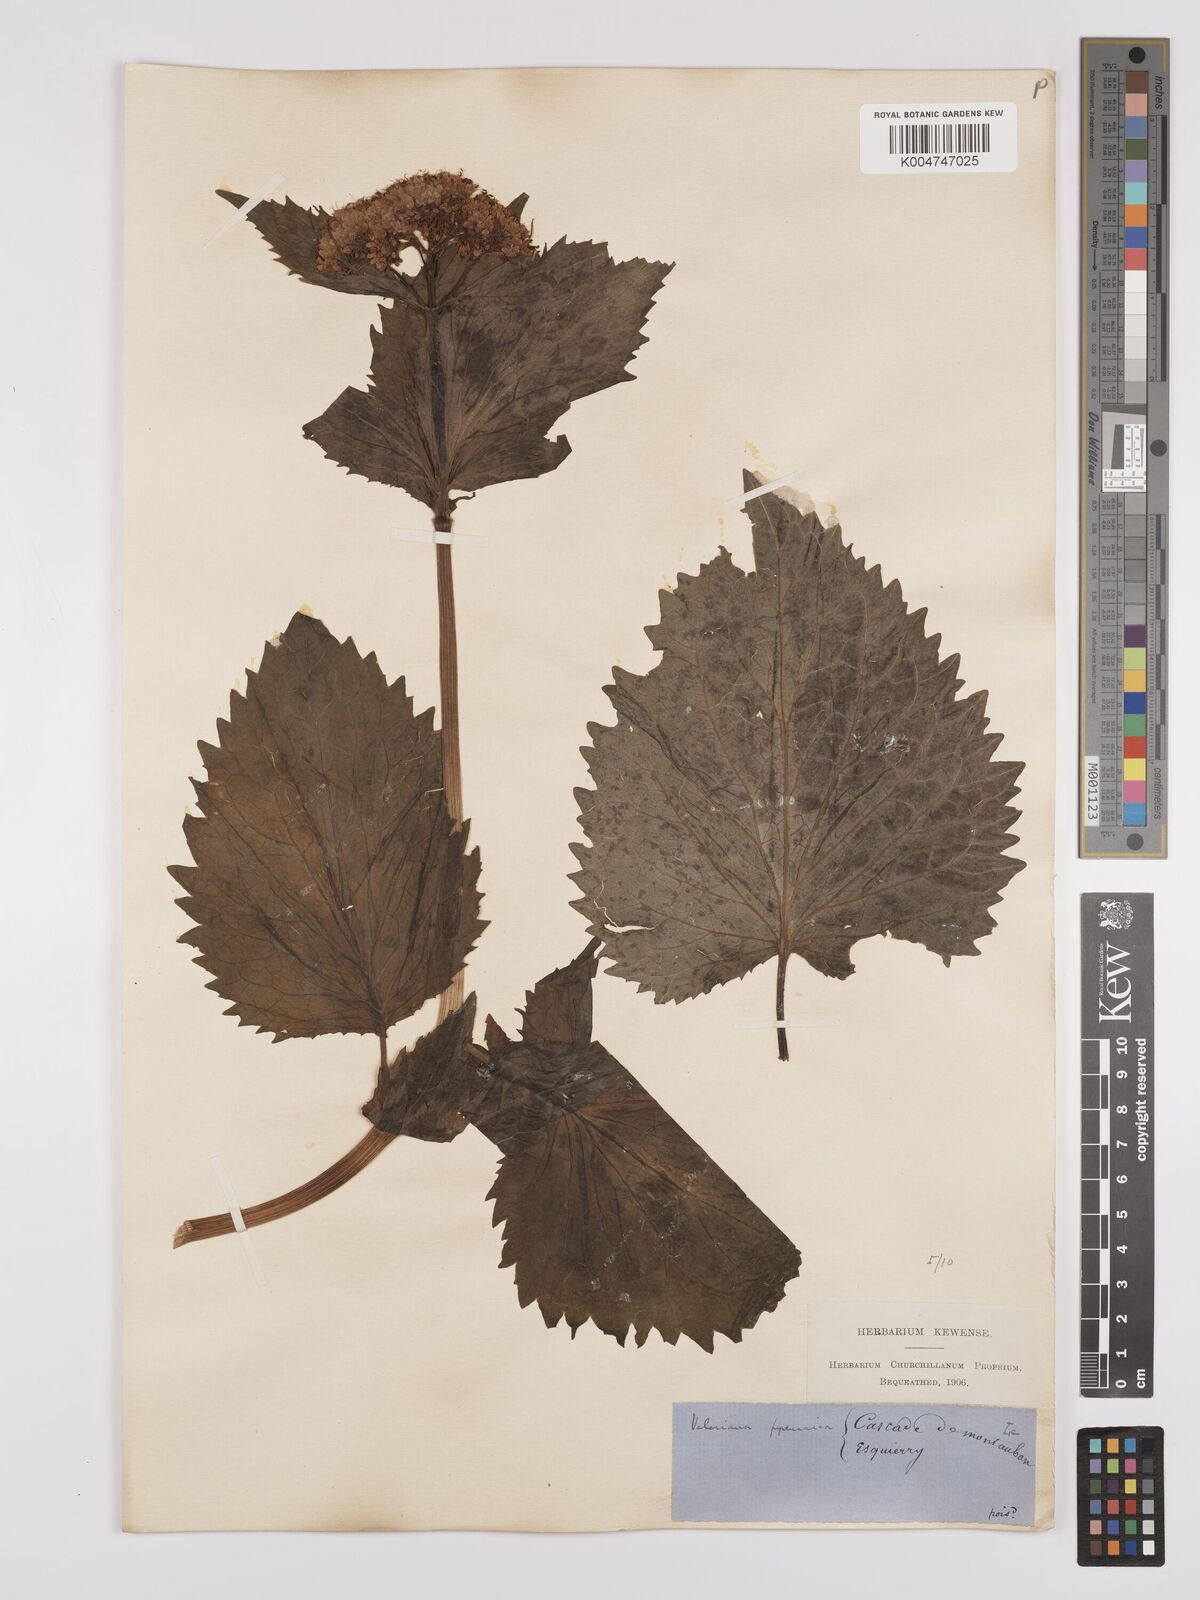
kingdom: Plantae
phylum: Tracheophyta
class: Magnoliopsida
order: Dipsacales
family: Caprifoliaceae
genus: Valeriana
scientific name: Valeriana pyrenaica
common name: Pyrenean valerian
